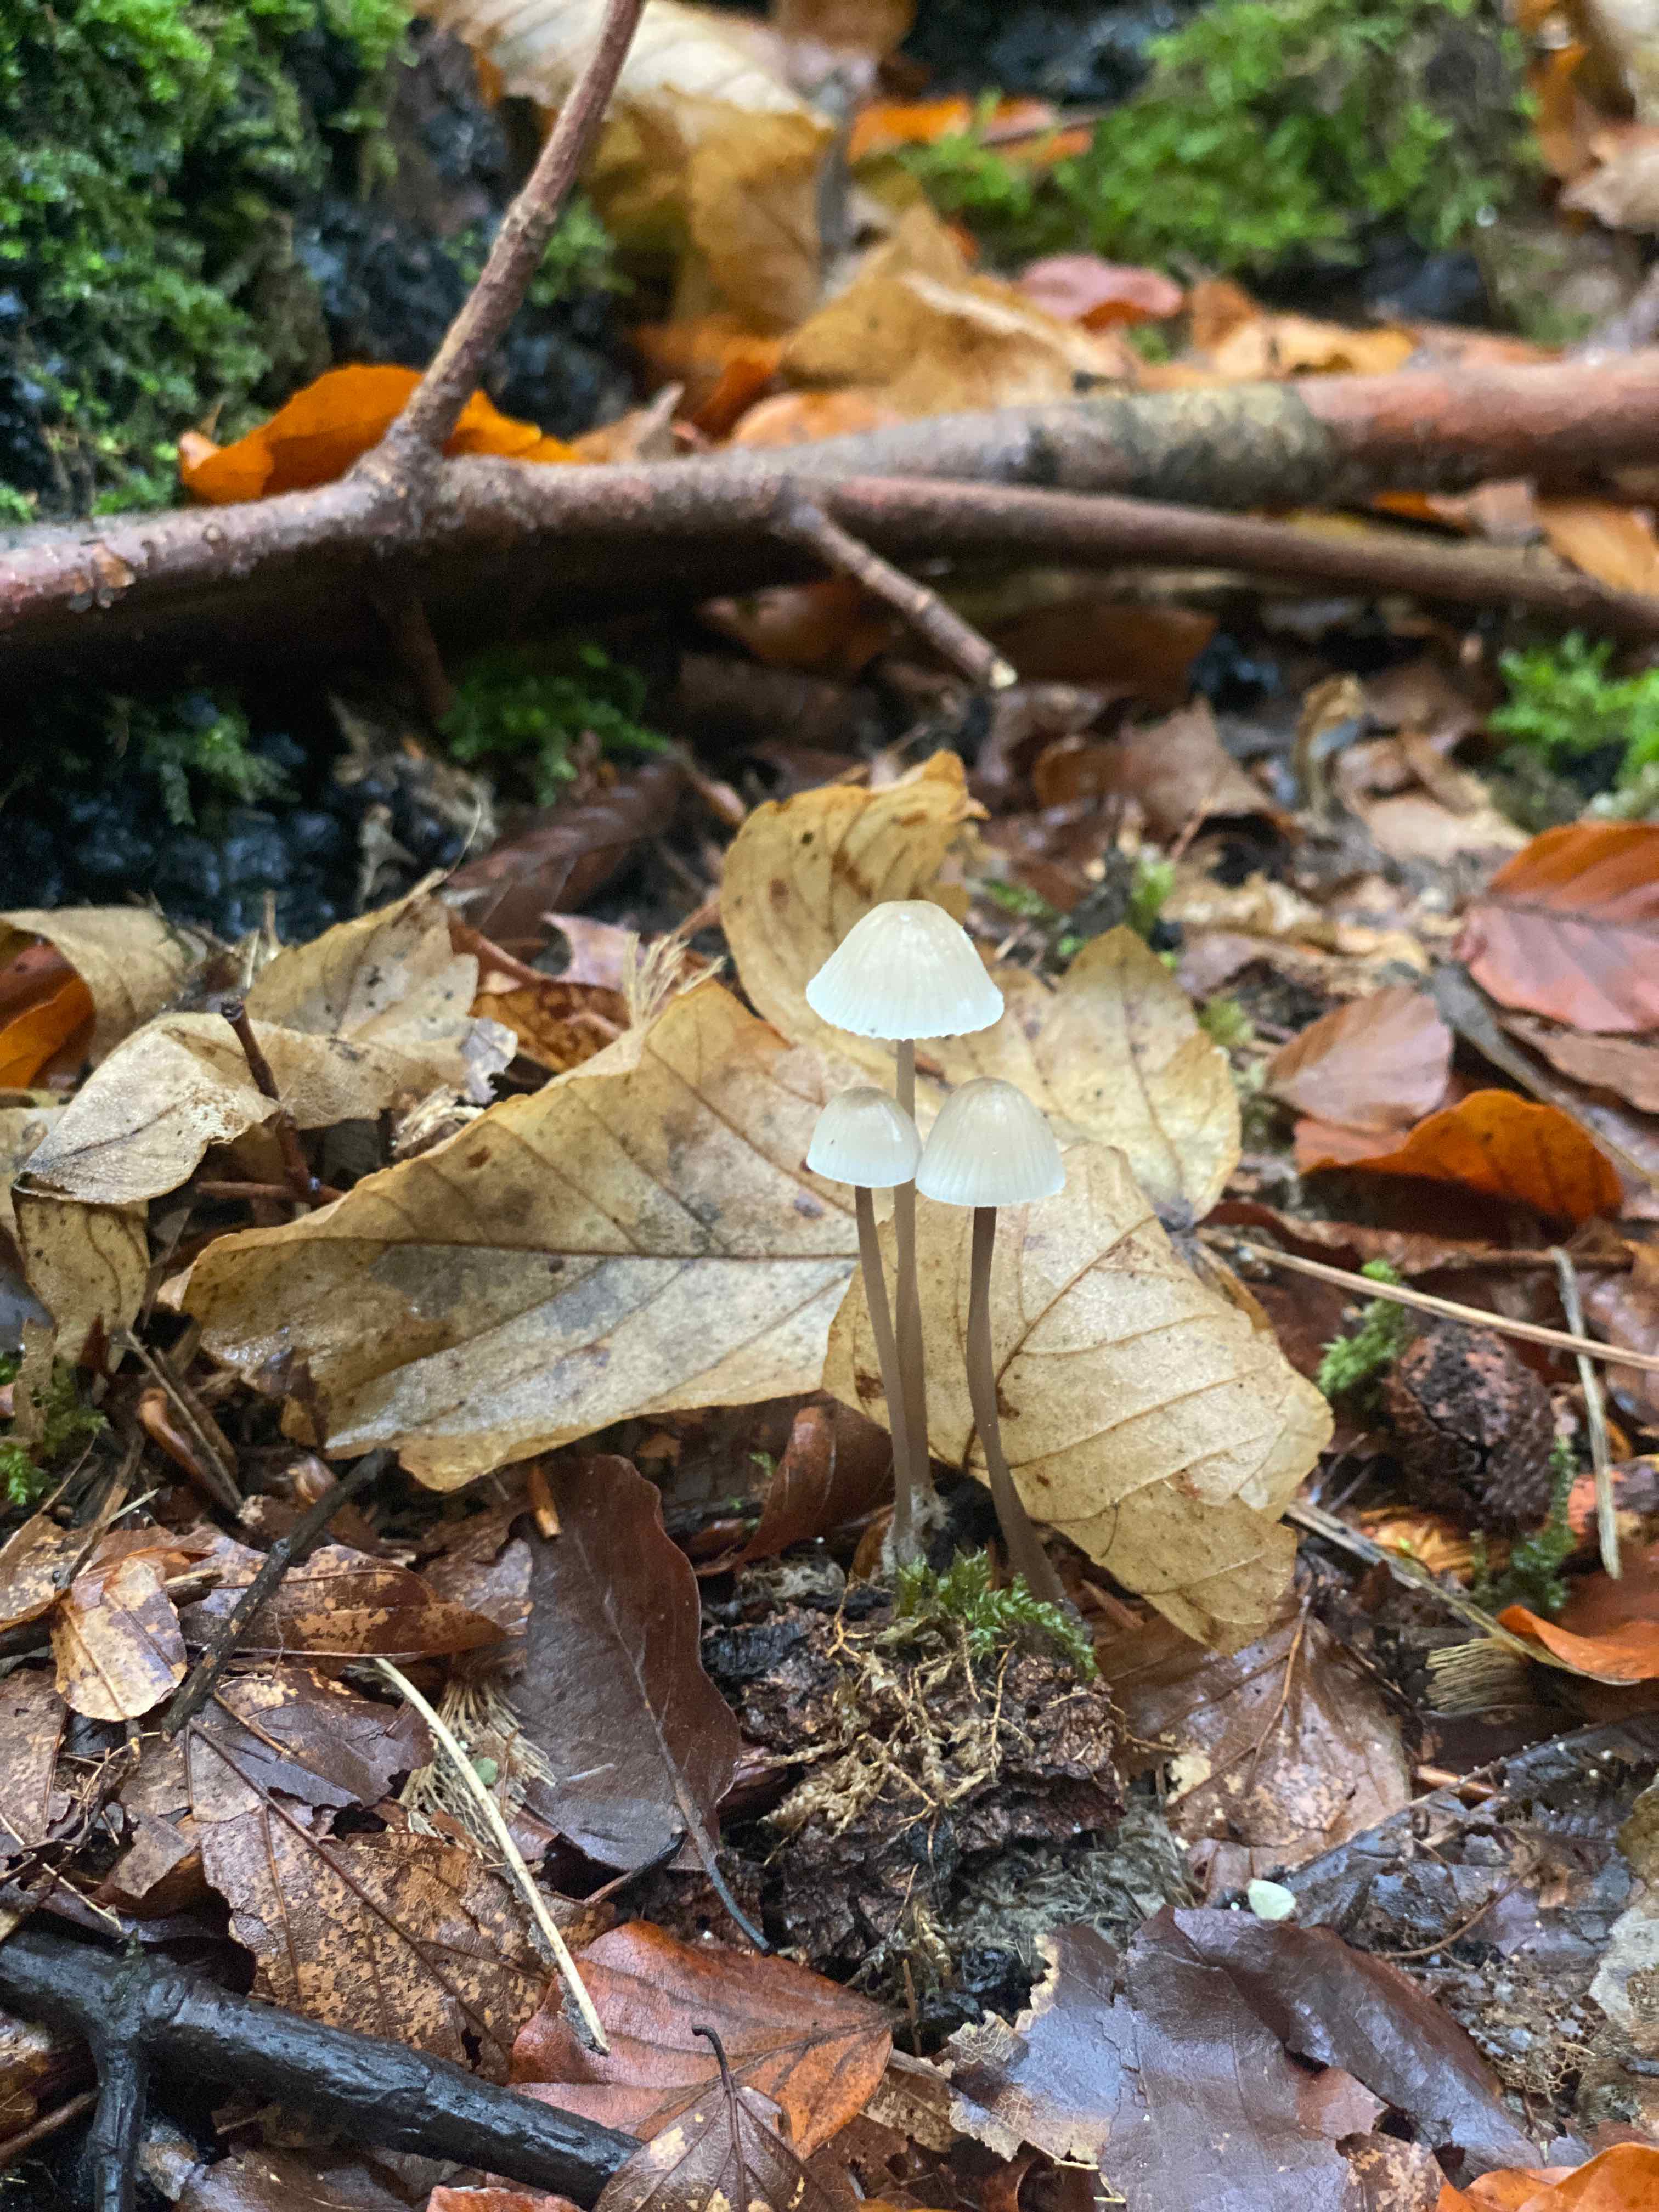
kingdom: Fungi
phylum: Basidiomycota
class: Agaricomycetes
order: Agaricales
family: Mycenaceae
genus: Mycena
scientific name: Mycena
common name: huesvamp
